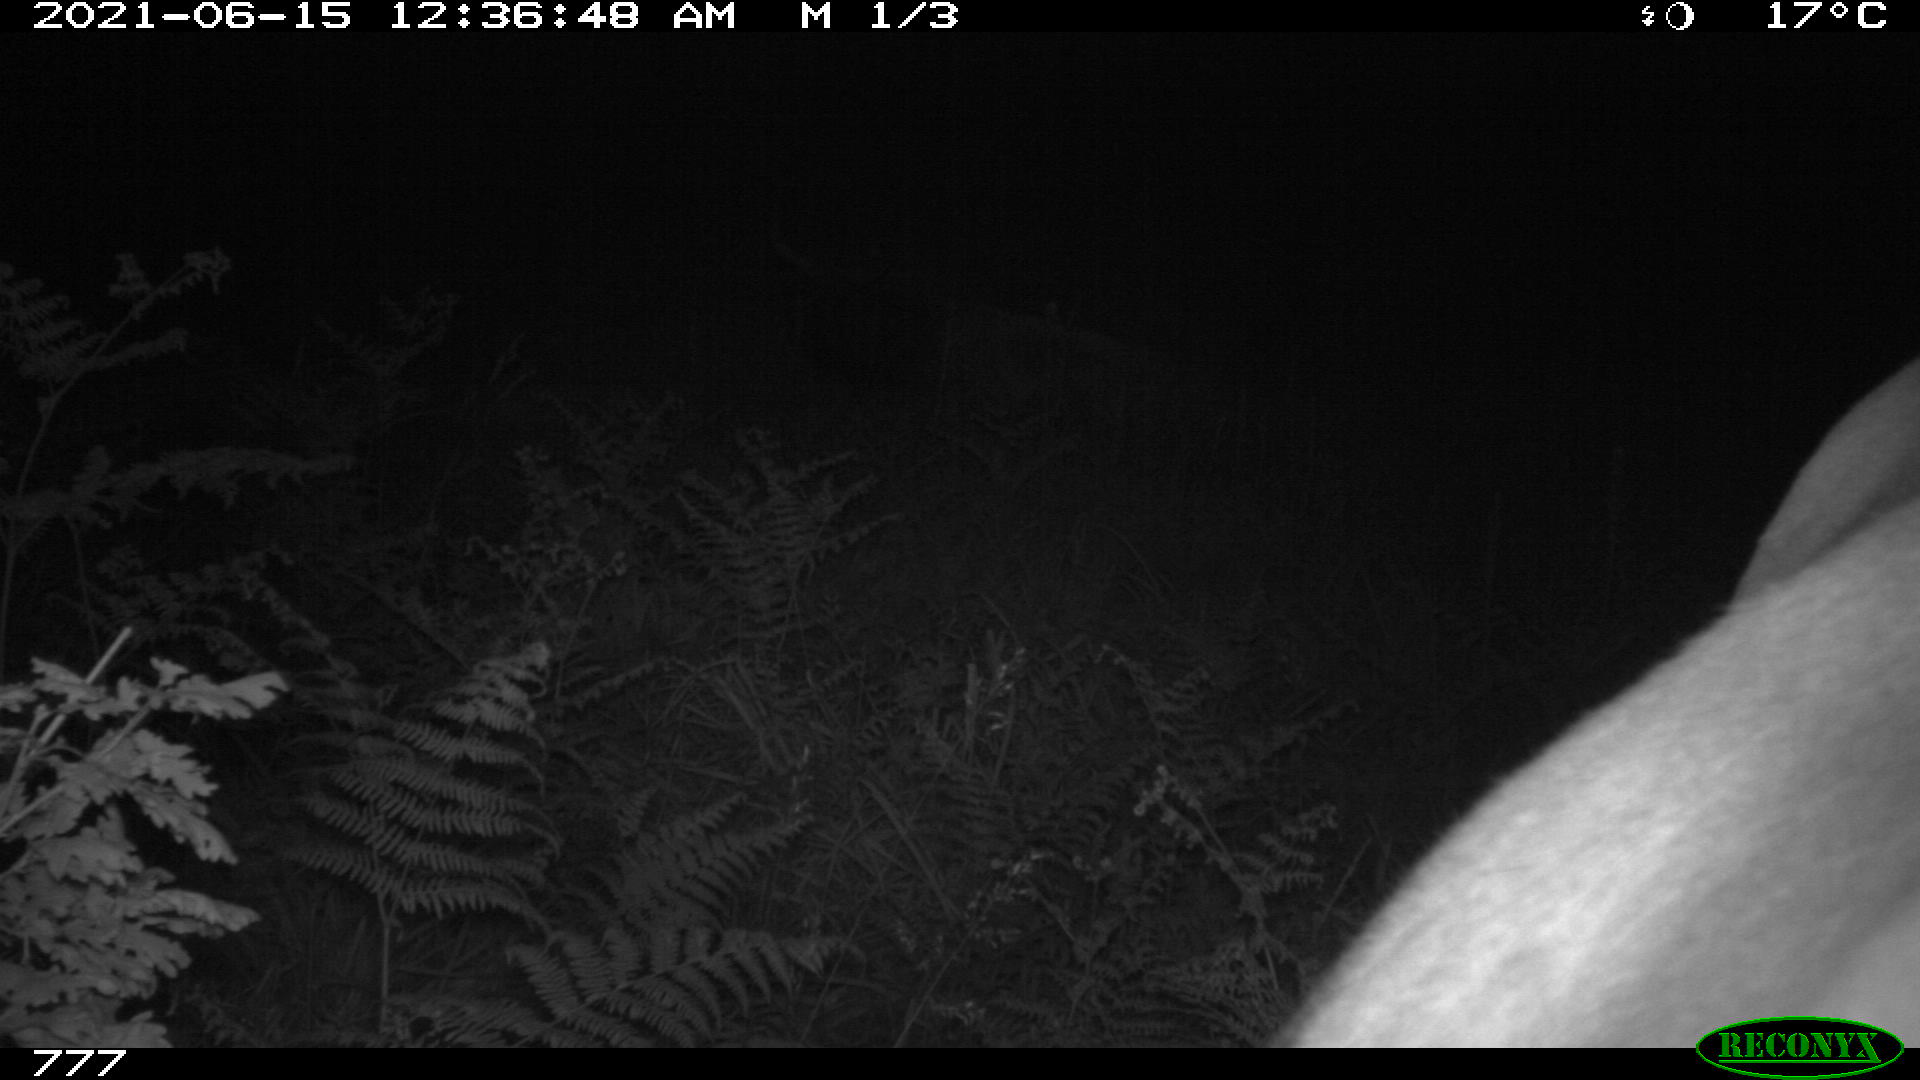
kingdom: Animalia
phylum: Chordata
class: Mammalia
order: Artiodactyla
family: Bovidae
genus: Bos
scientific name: Bos taurus
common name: Domesticated cattle
